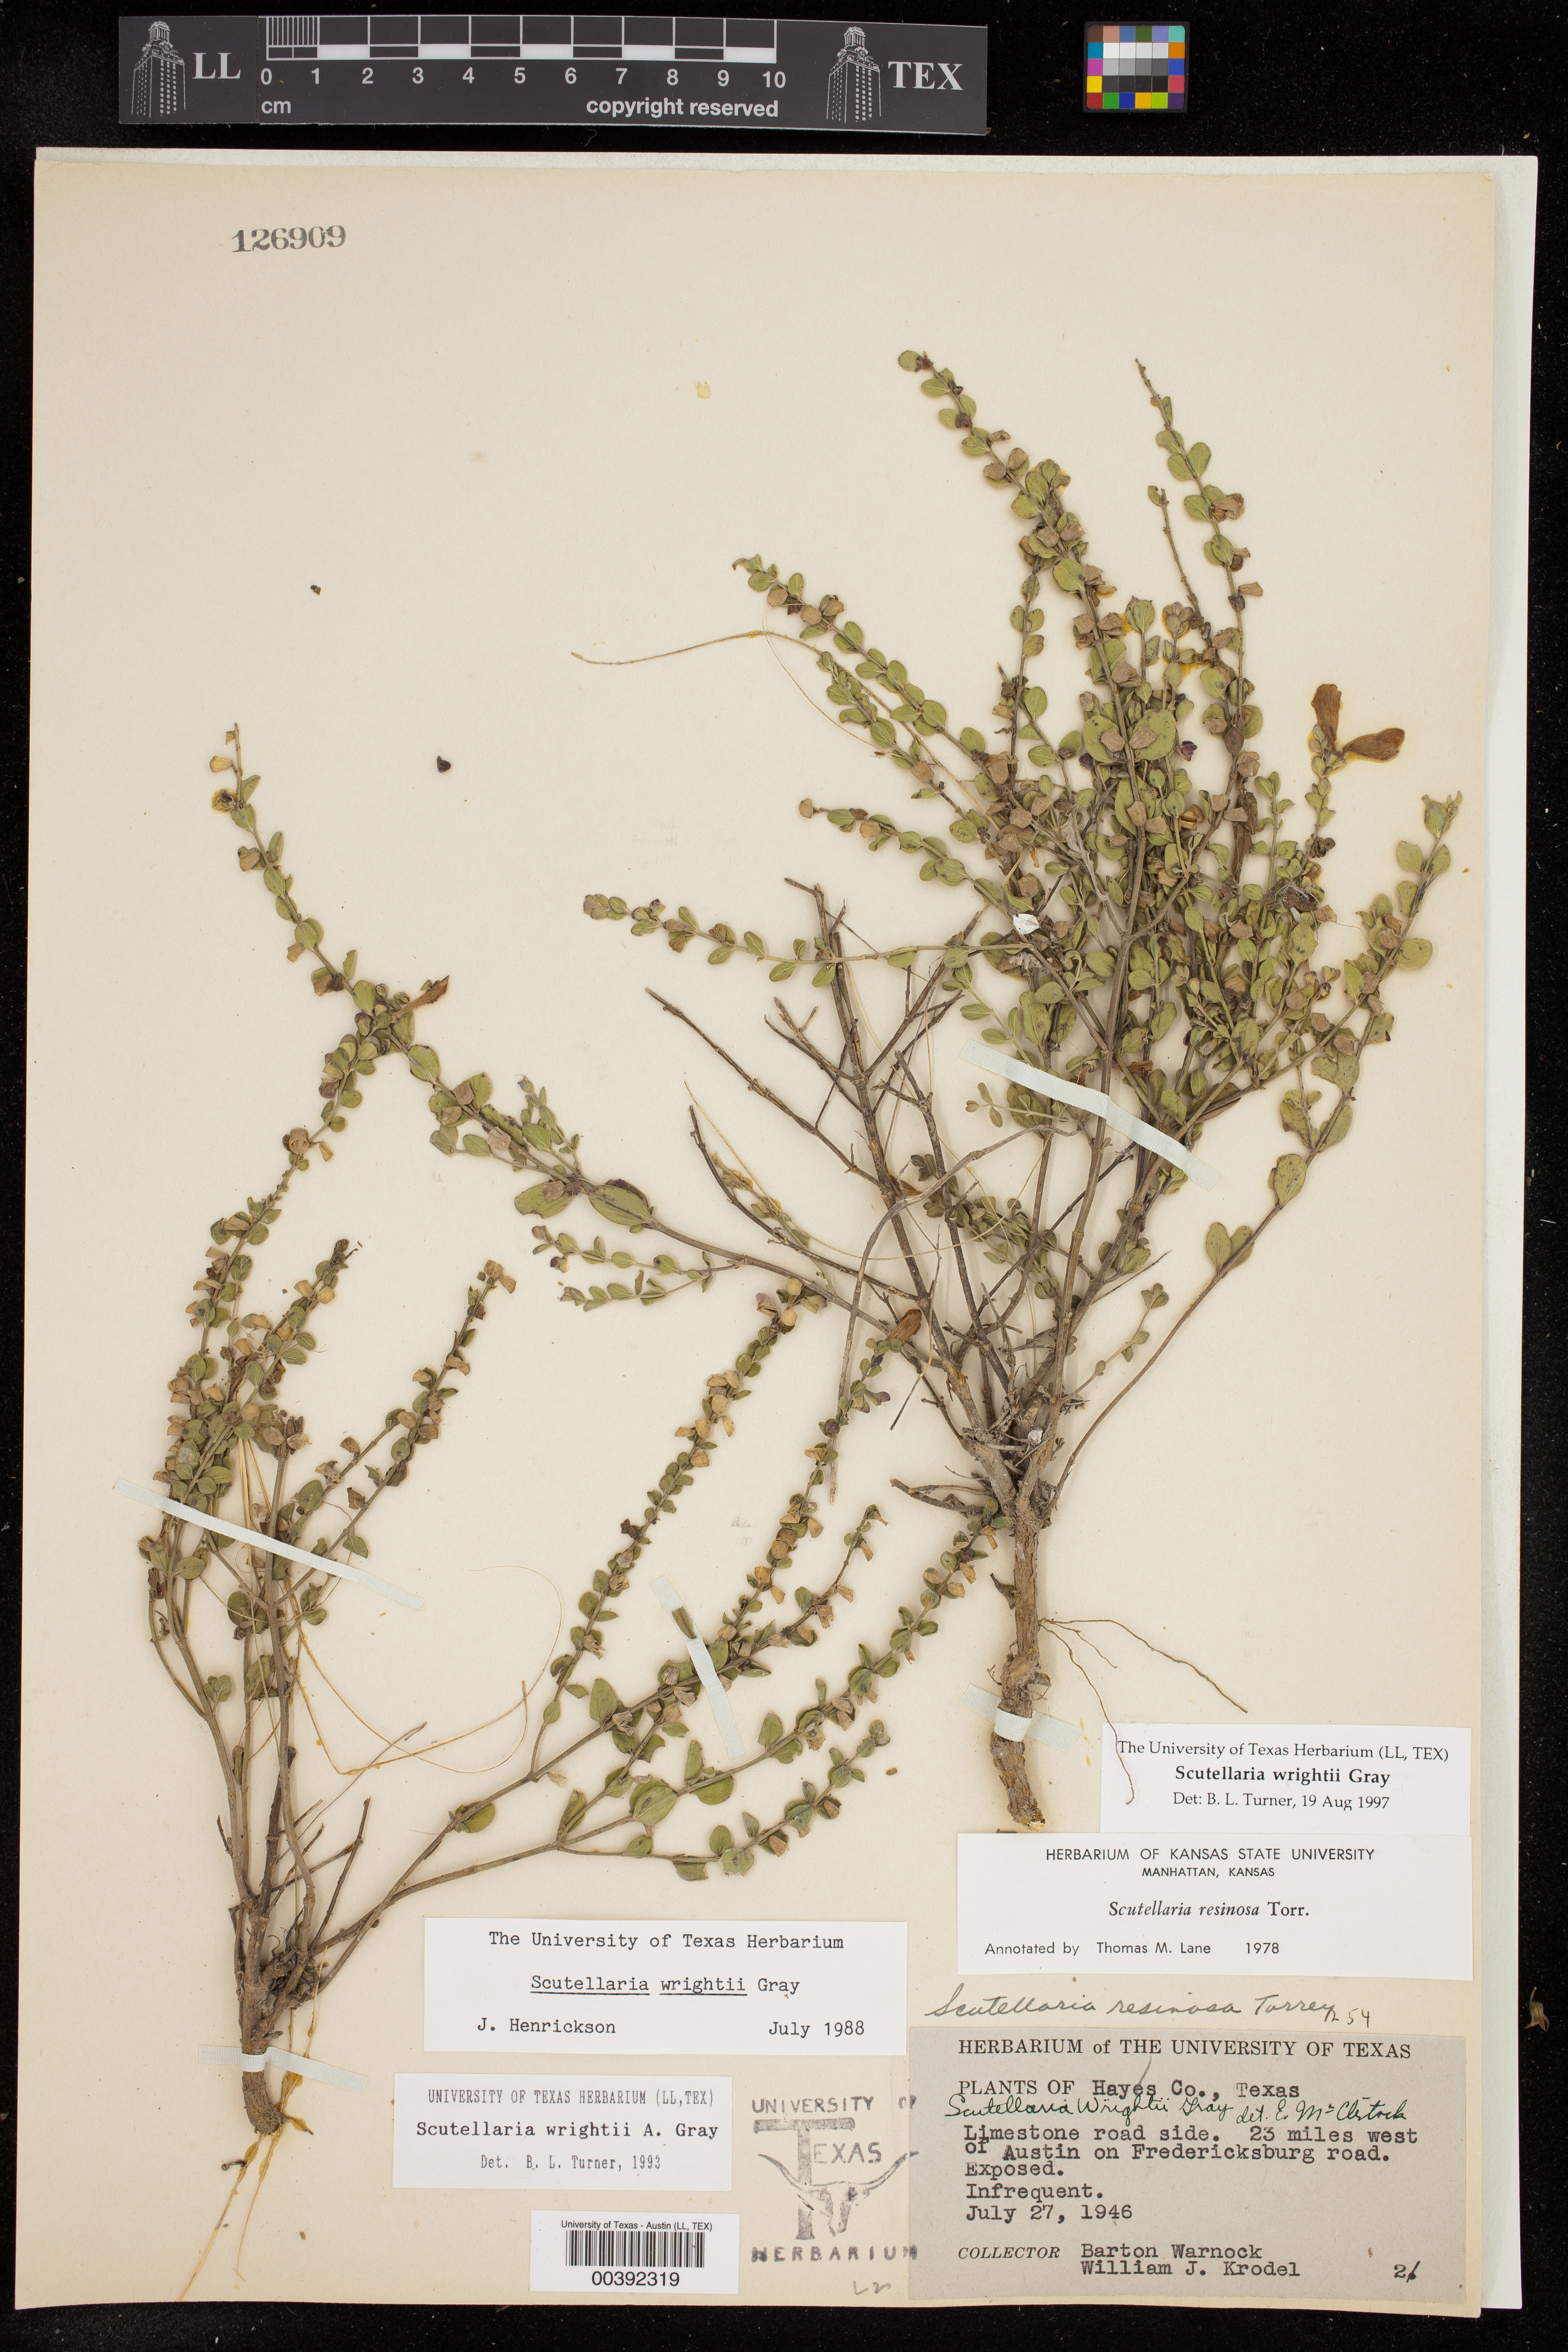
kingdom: Plantae
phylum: Tracheophyta
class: Magnoliopsida
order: Lamiales
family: Lamiaceae
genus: Scutellaria
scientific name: Scutellaria wrightii
